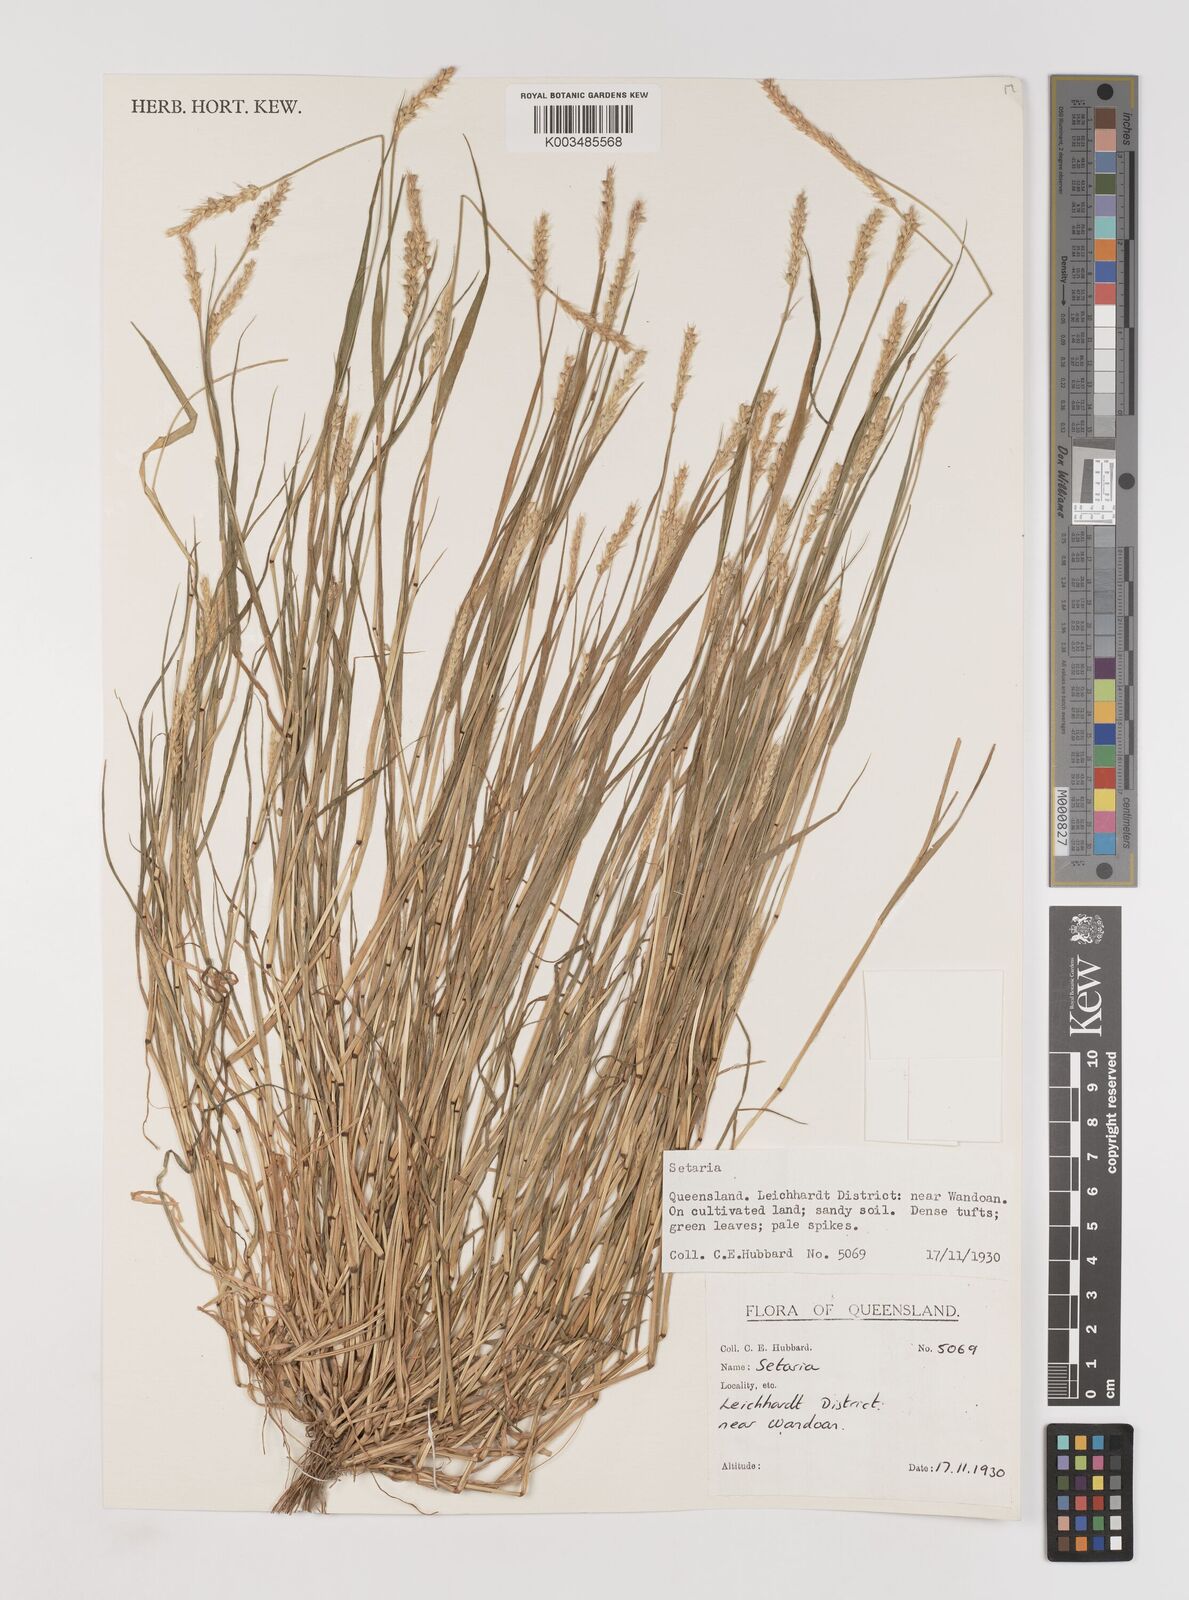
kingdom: Plantae
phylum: Tracheophyta
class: Liliopsida
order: Poales
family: Poaceae
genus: Setaria
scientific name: Setaria
